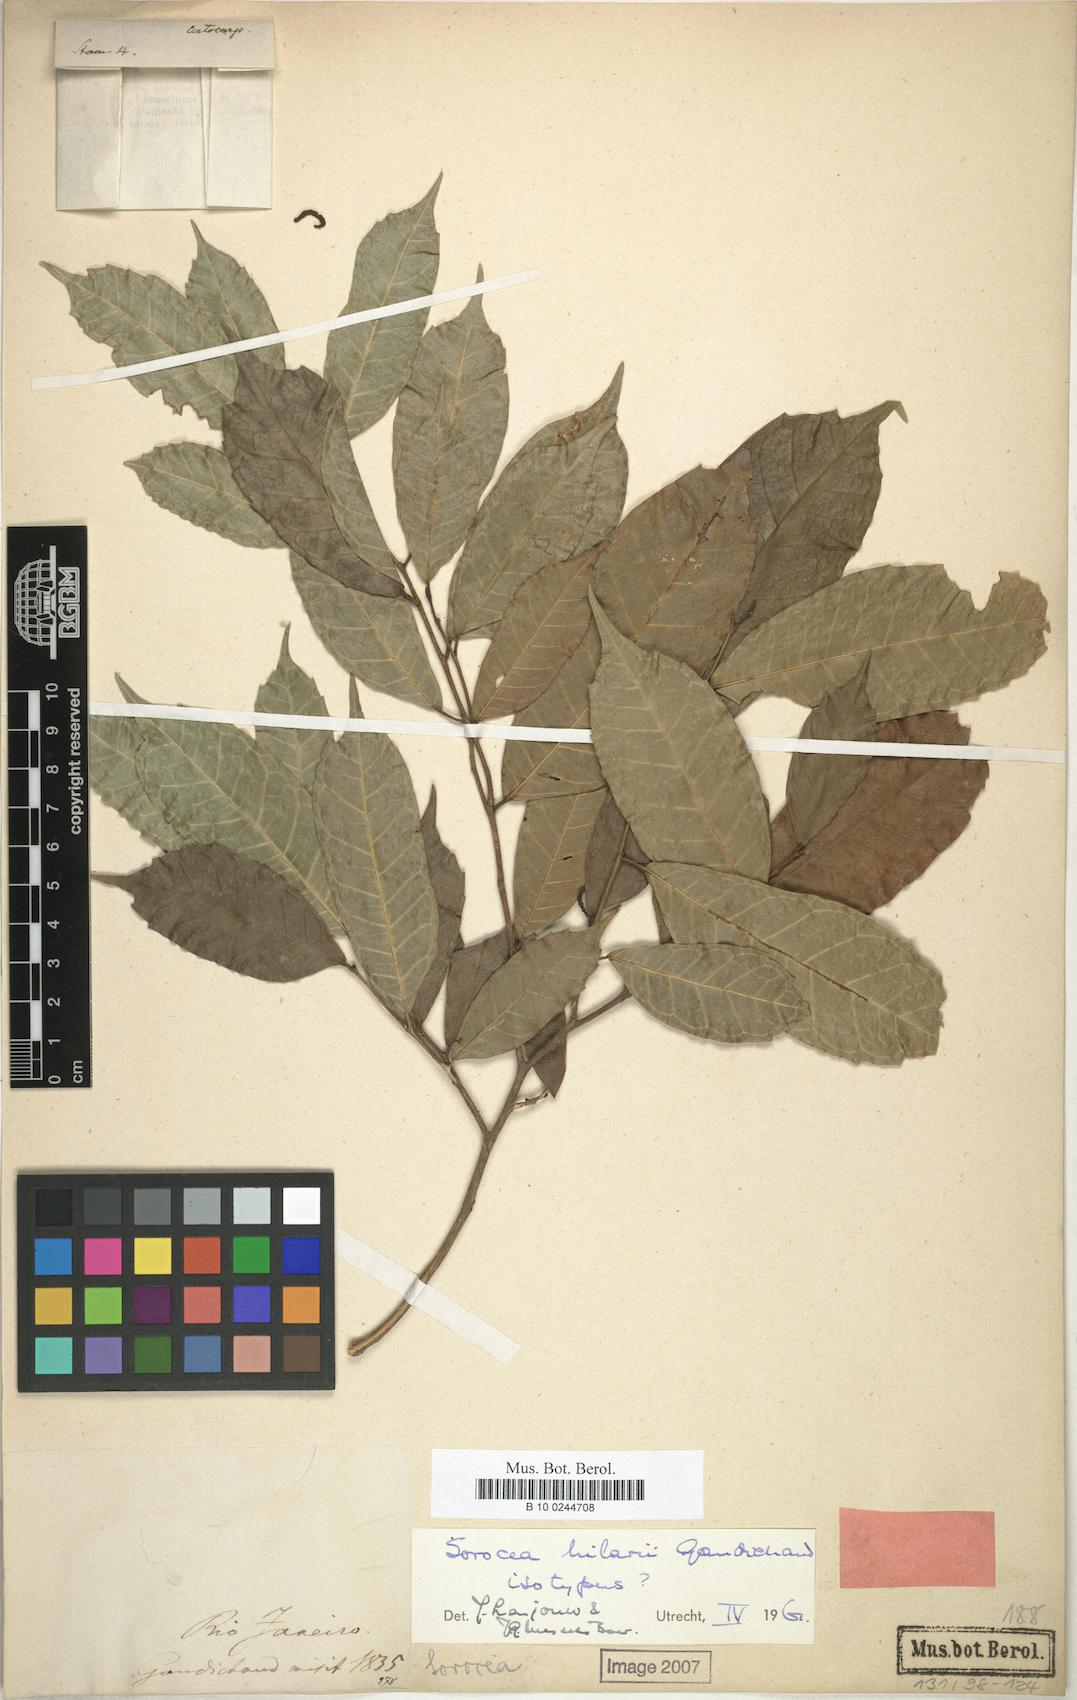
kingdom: Plantae
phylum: Tracheophyta
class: Magnoliopsida
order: Rosales
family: Moraceae
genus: Sorocea
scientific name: Sorocea hilarii
